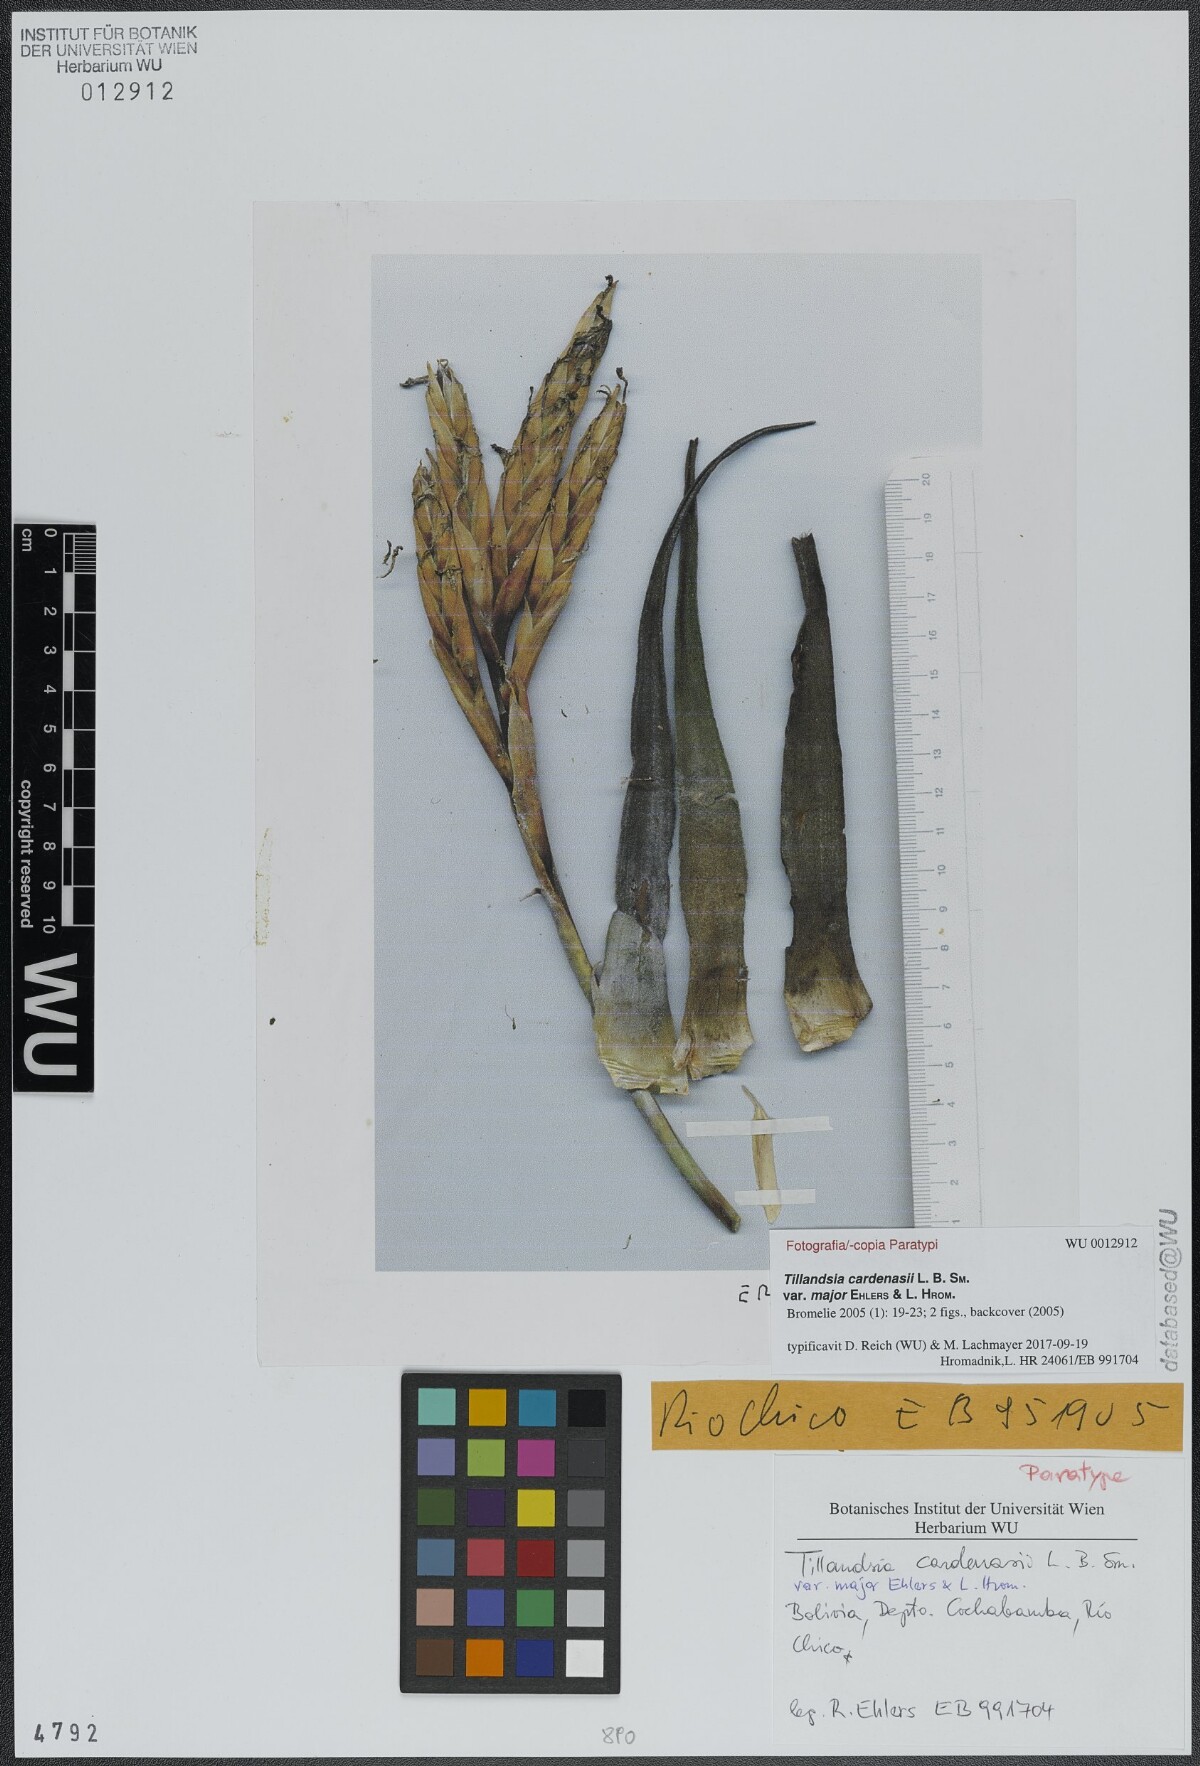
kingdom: Plantae
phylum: Tracheophyta
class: Liliopsida
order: Poales
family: Bromeliaceae
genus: Tillandsia
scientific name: Tillandsia cardenasii
